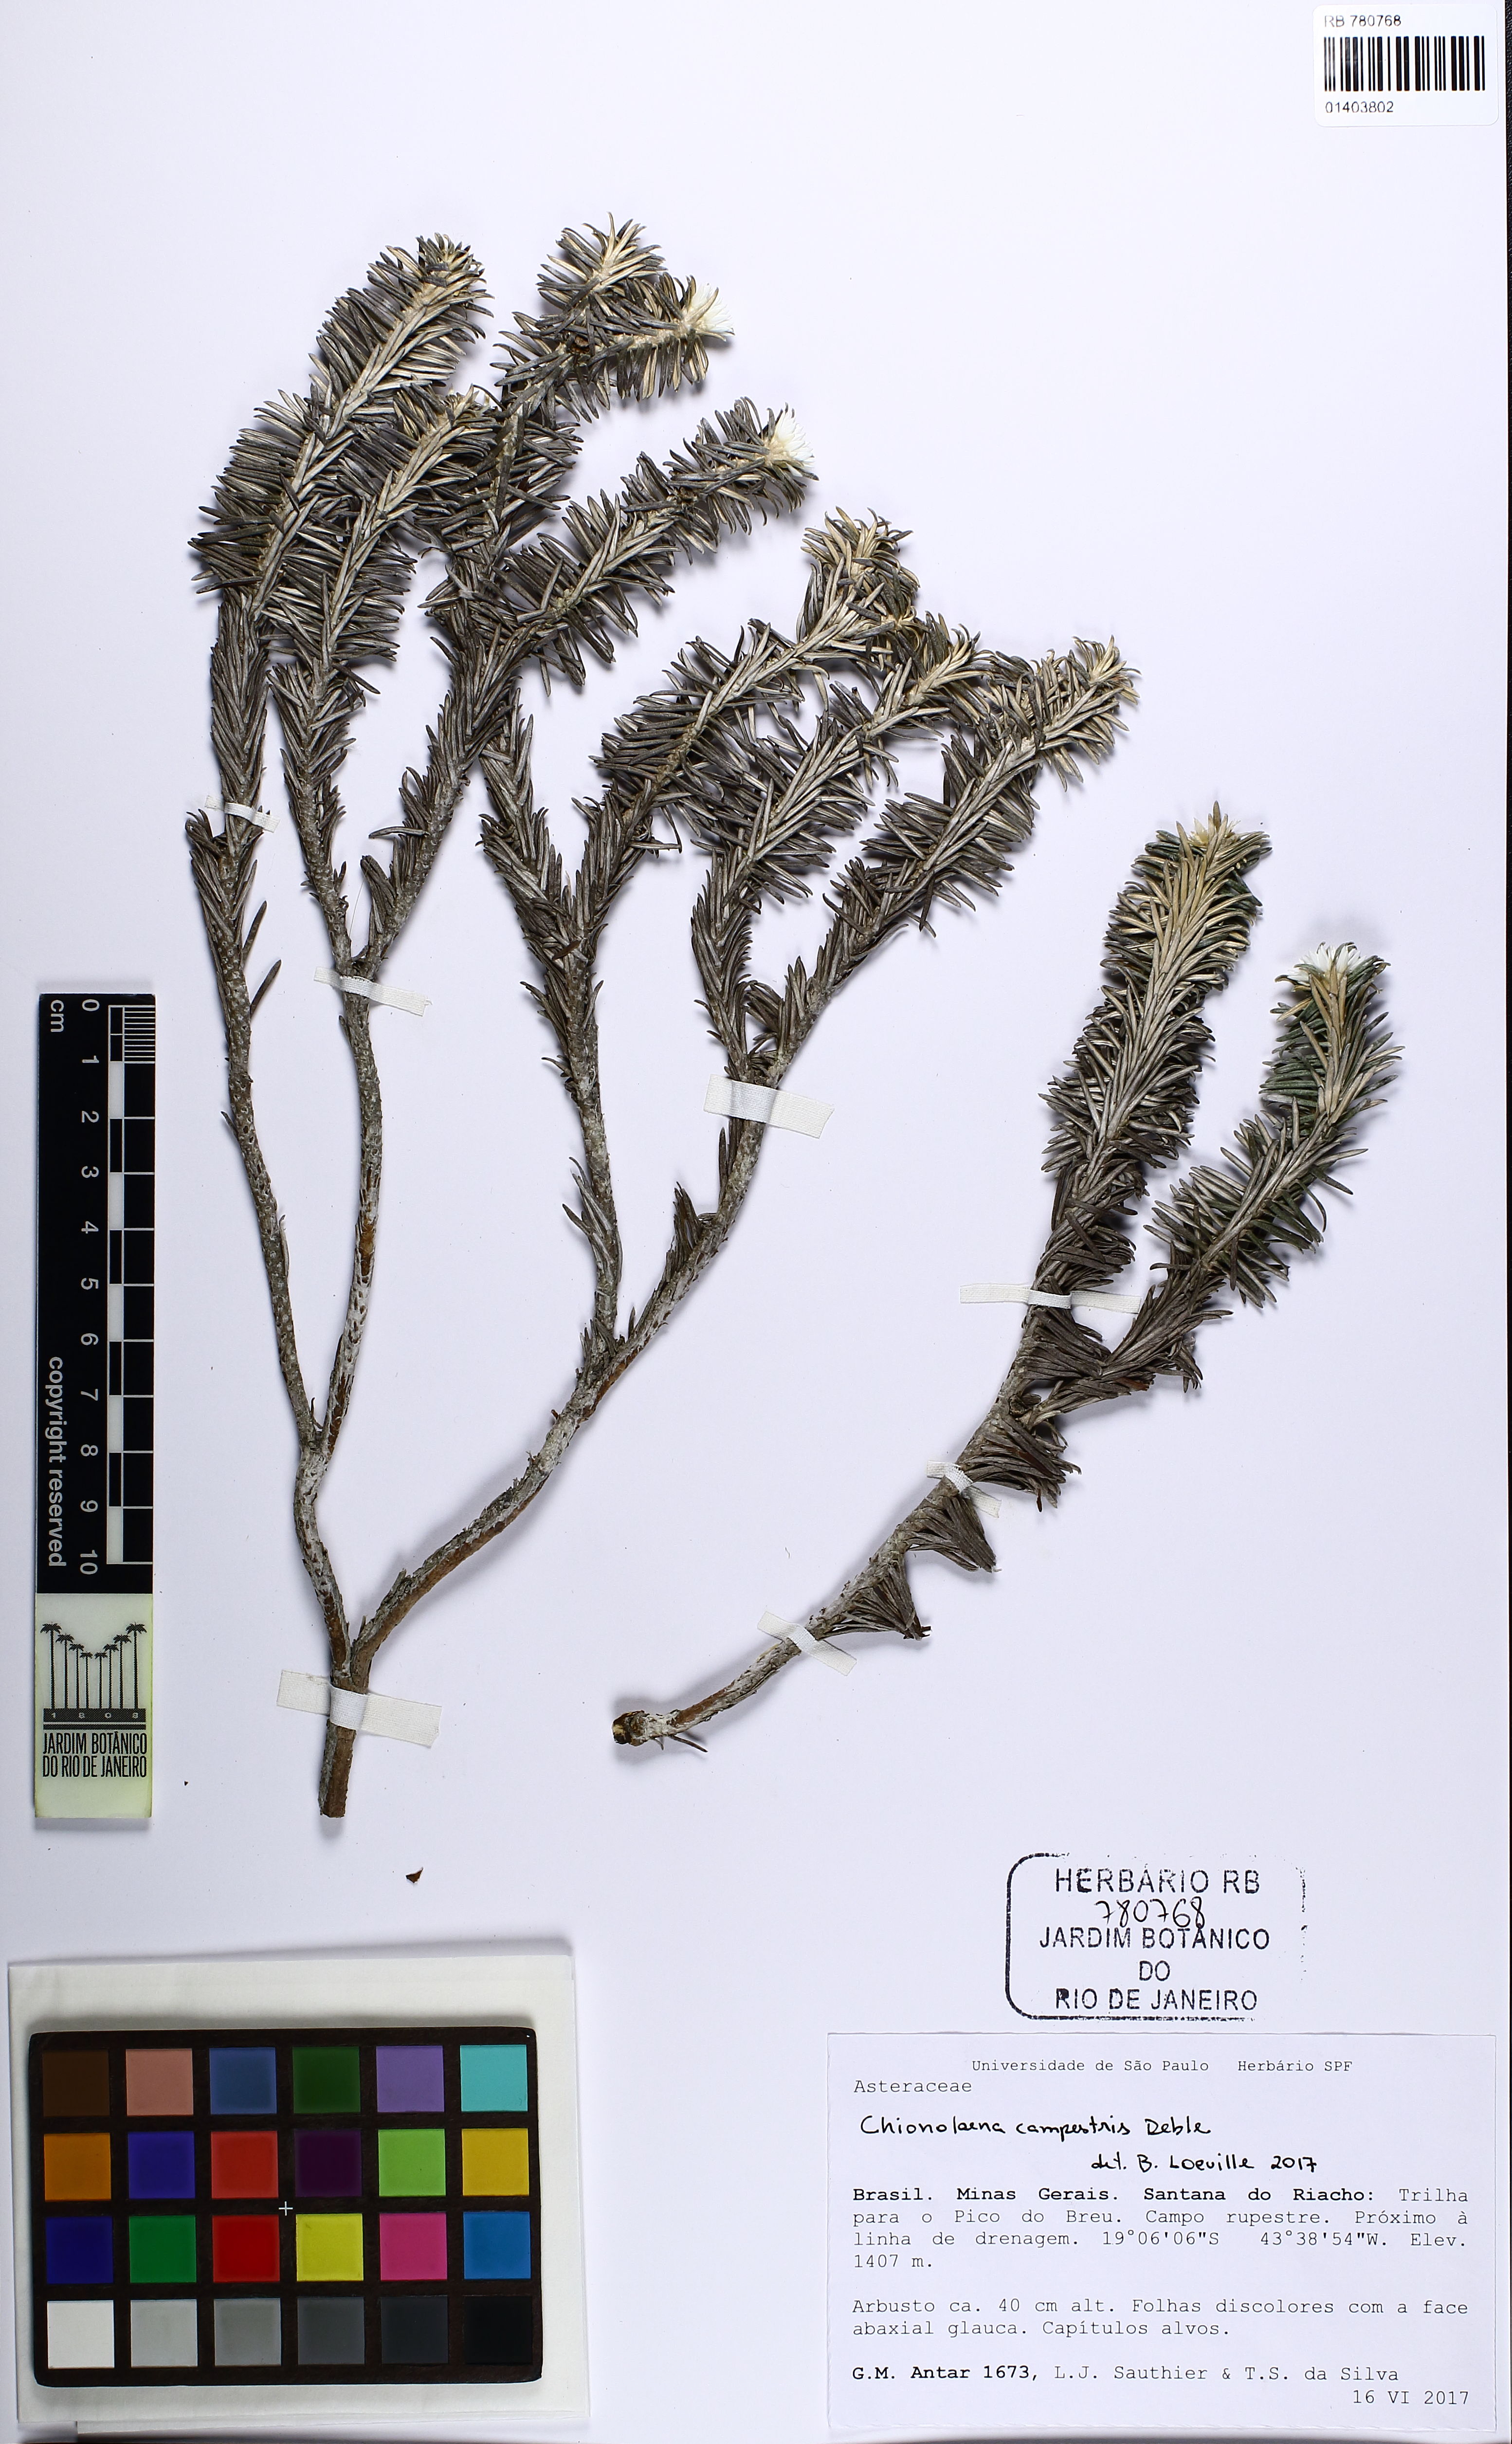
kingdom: Plantae
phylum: Tracheophyta
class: Magnoliopsida
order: Asterales
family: Asteraceae
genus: Chionolaena
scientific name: Chionolaena campestris
